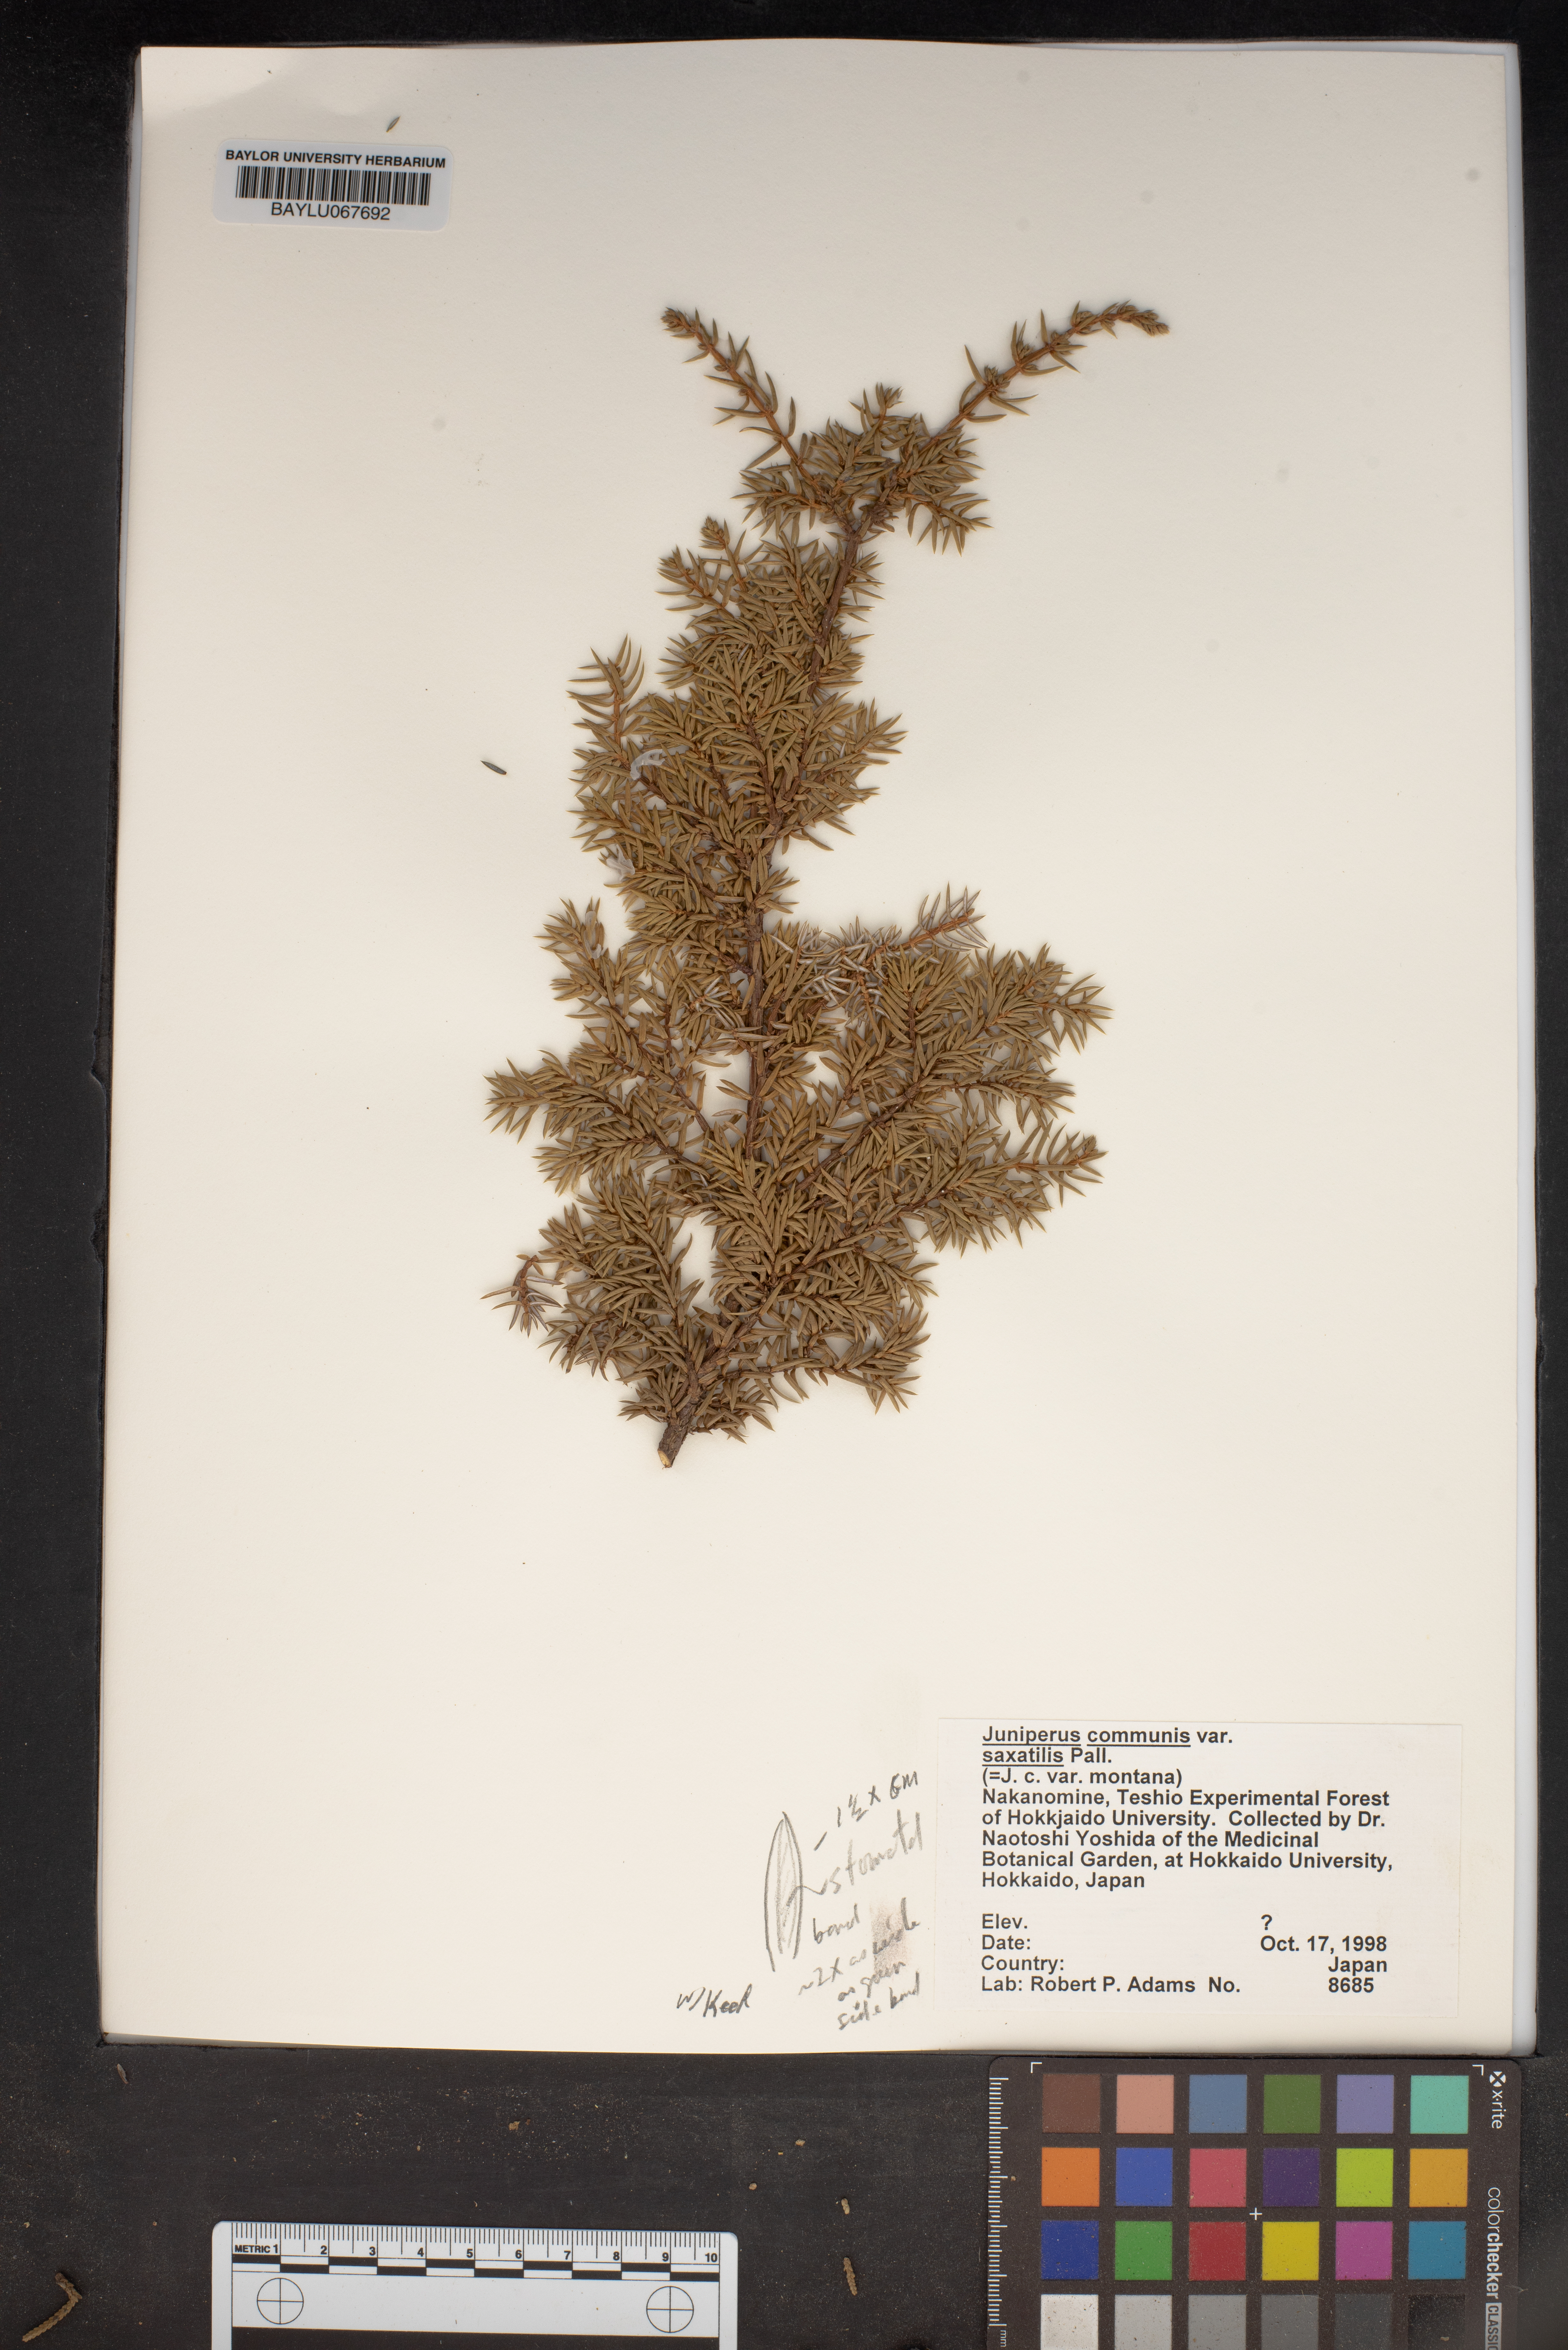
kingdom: Plantae
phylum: Tracheophyta
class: Pinopsida
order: Pinales
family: Cupressaceae
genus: Juniperus
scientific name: Juniperus communis
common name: Common juniper
